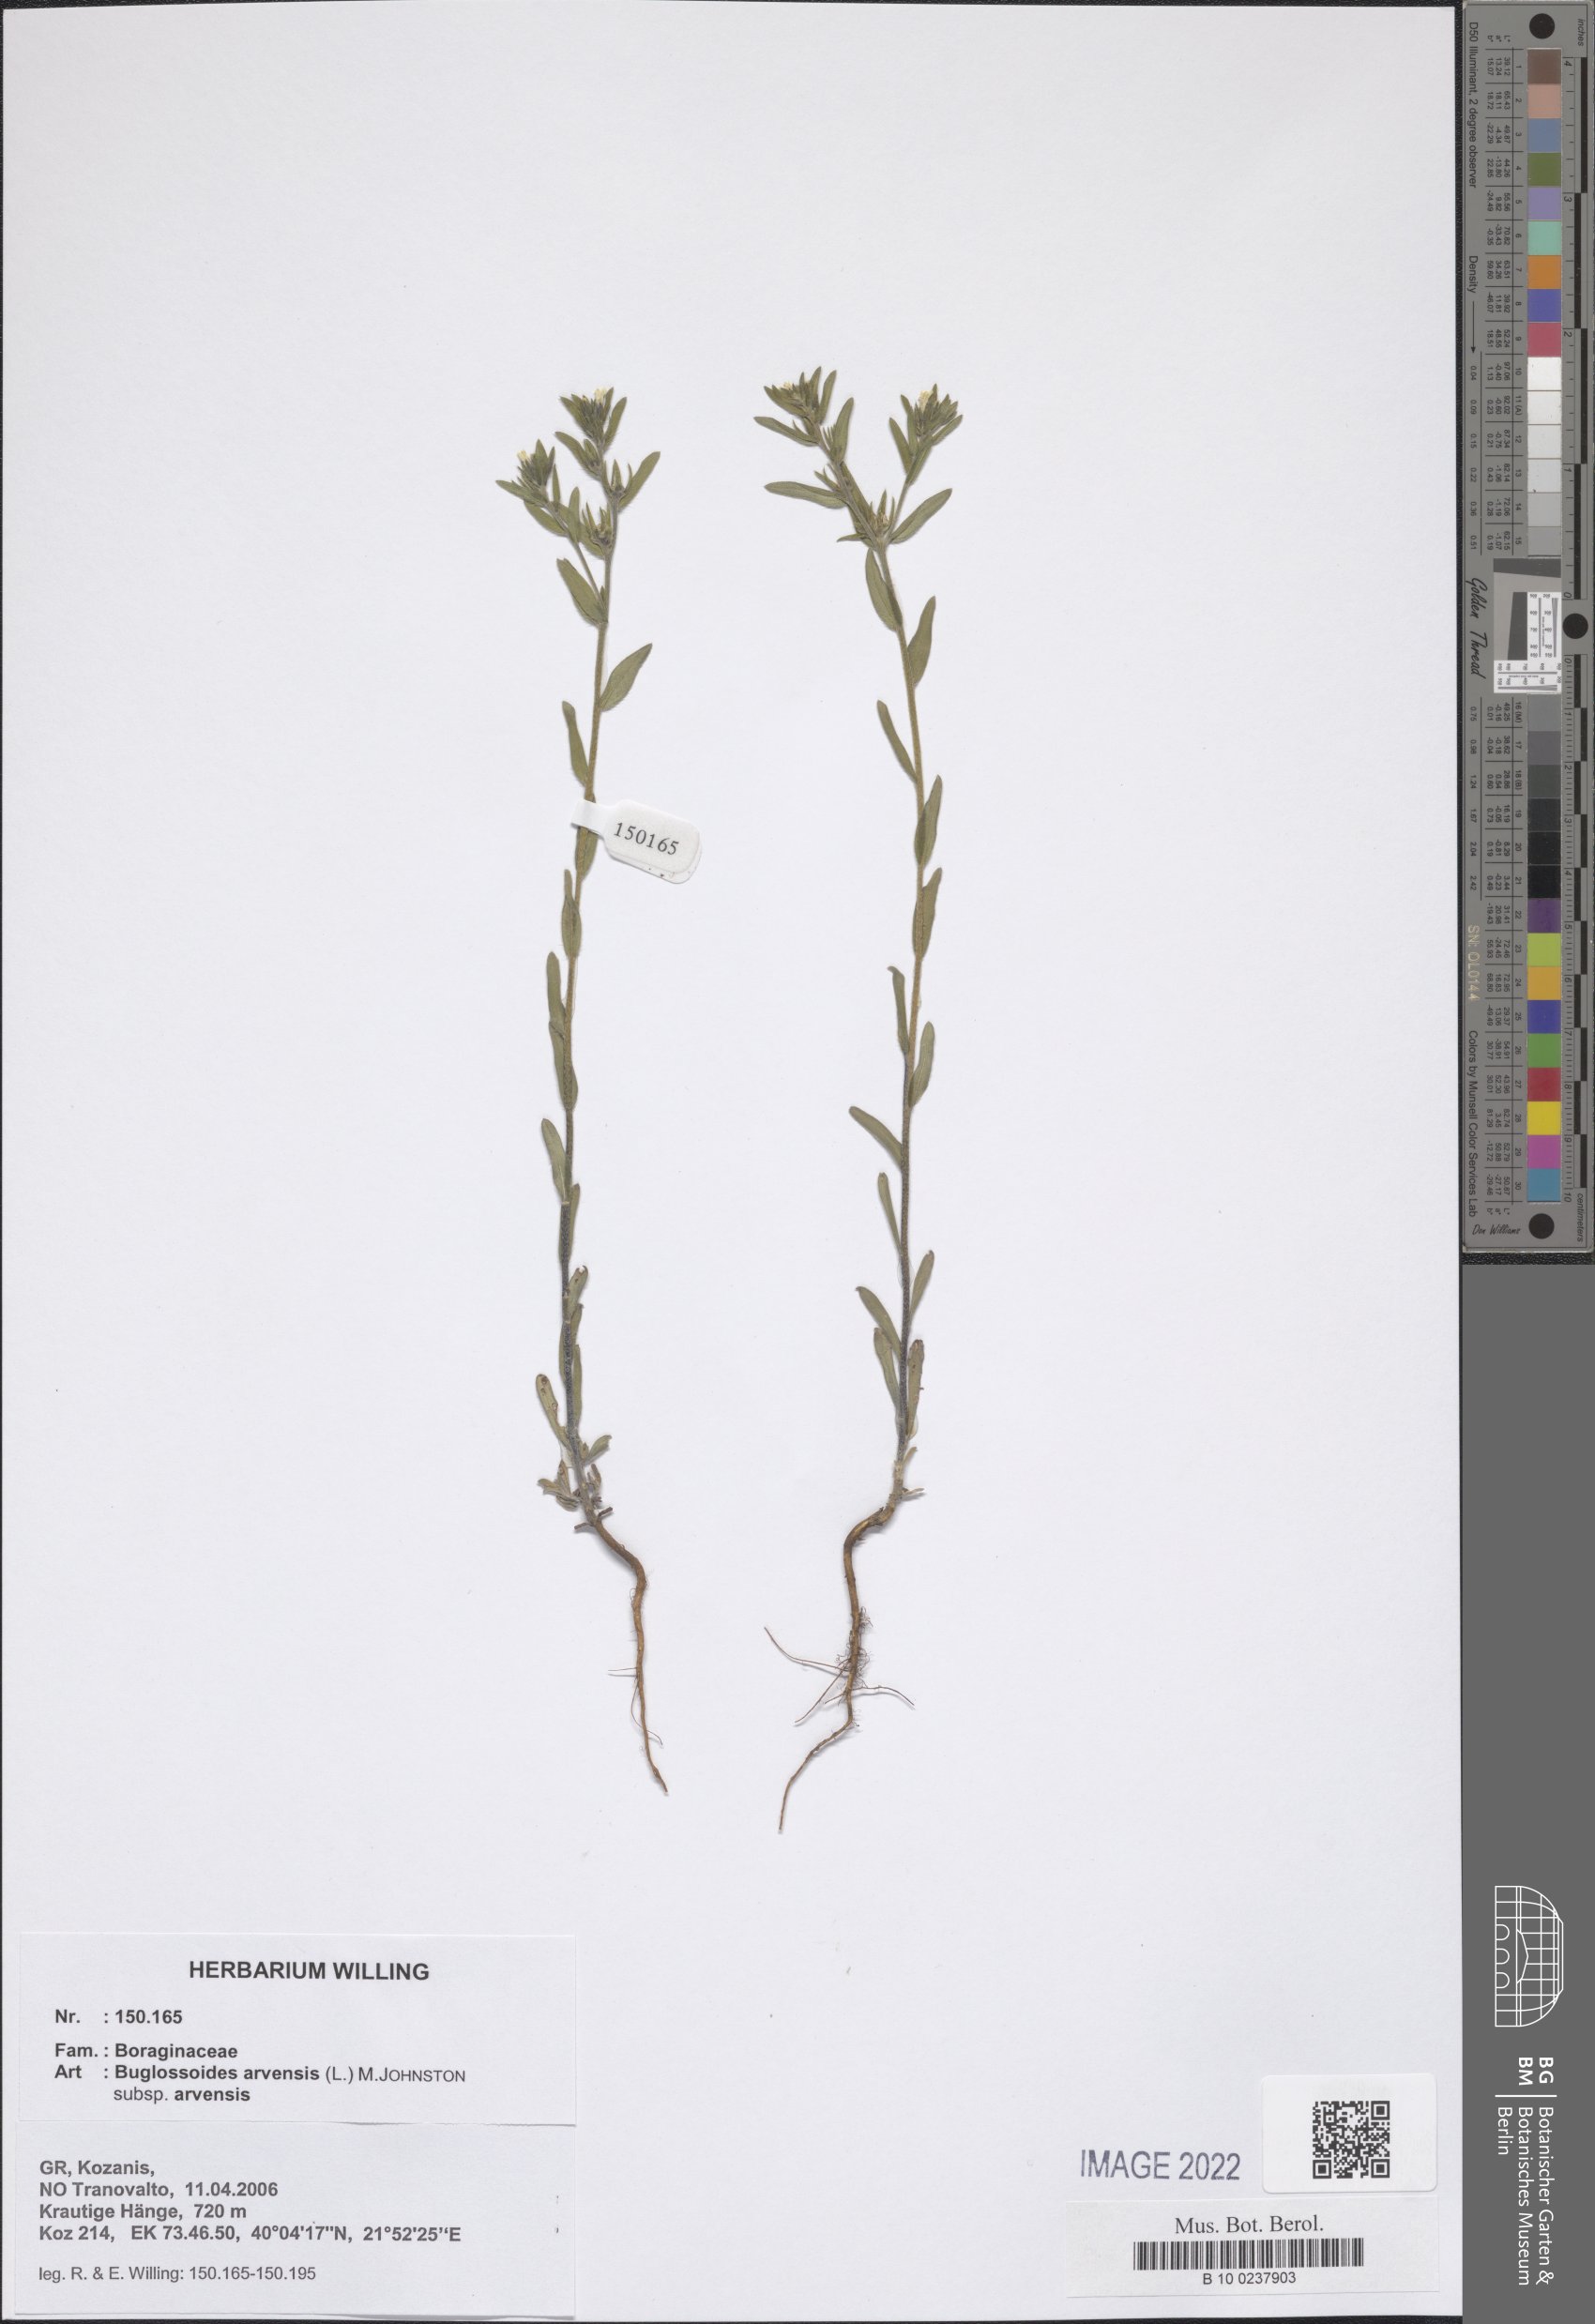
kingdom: Plantae
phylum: Tracheophyta
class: Magnoliopsida
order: Boraginales
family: Boraginaceae
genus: Buglossoides
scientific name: Buglossoides arvensis
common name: Corn gromwell
